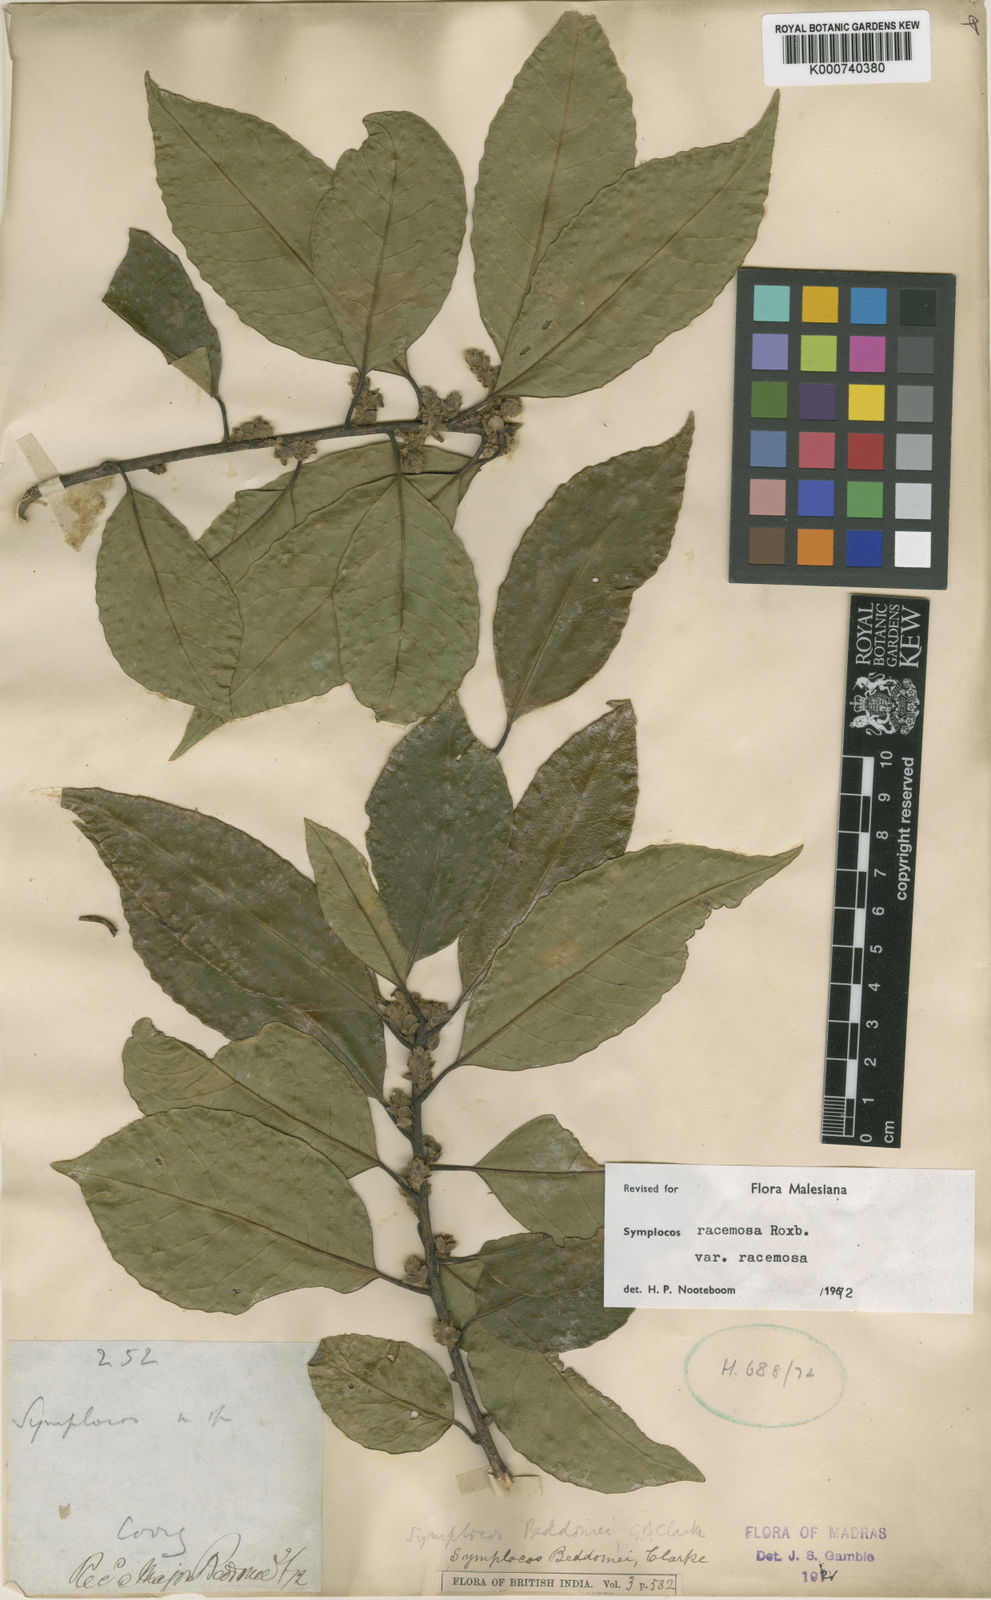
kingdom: Plantae
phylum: Tracheophyta
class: Magnoliopsida
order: Ericales
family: Symplocaceae
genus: Symplocos
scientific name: Symplocos racemosa
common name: Lodhtree
